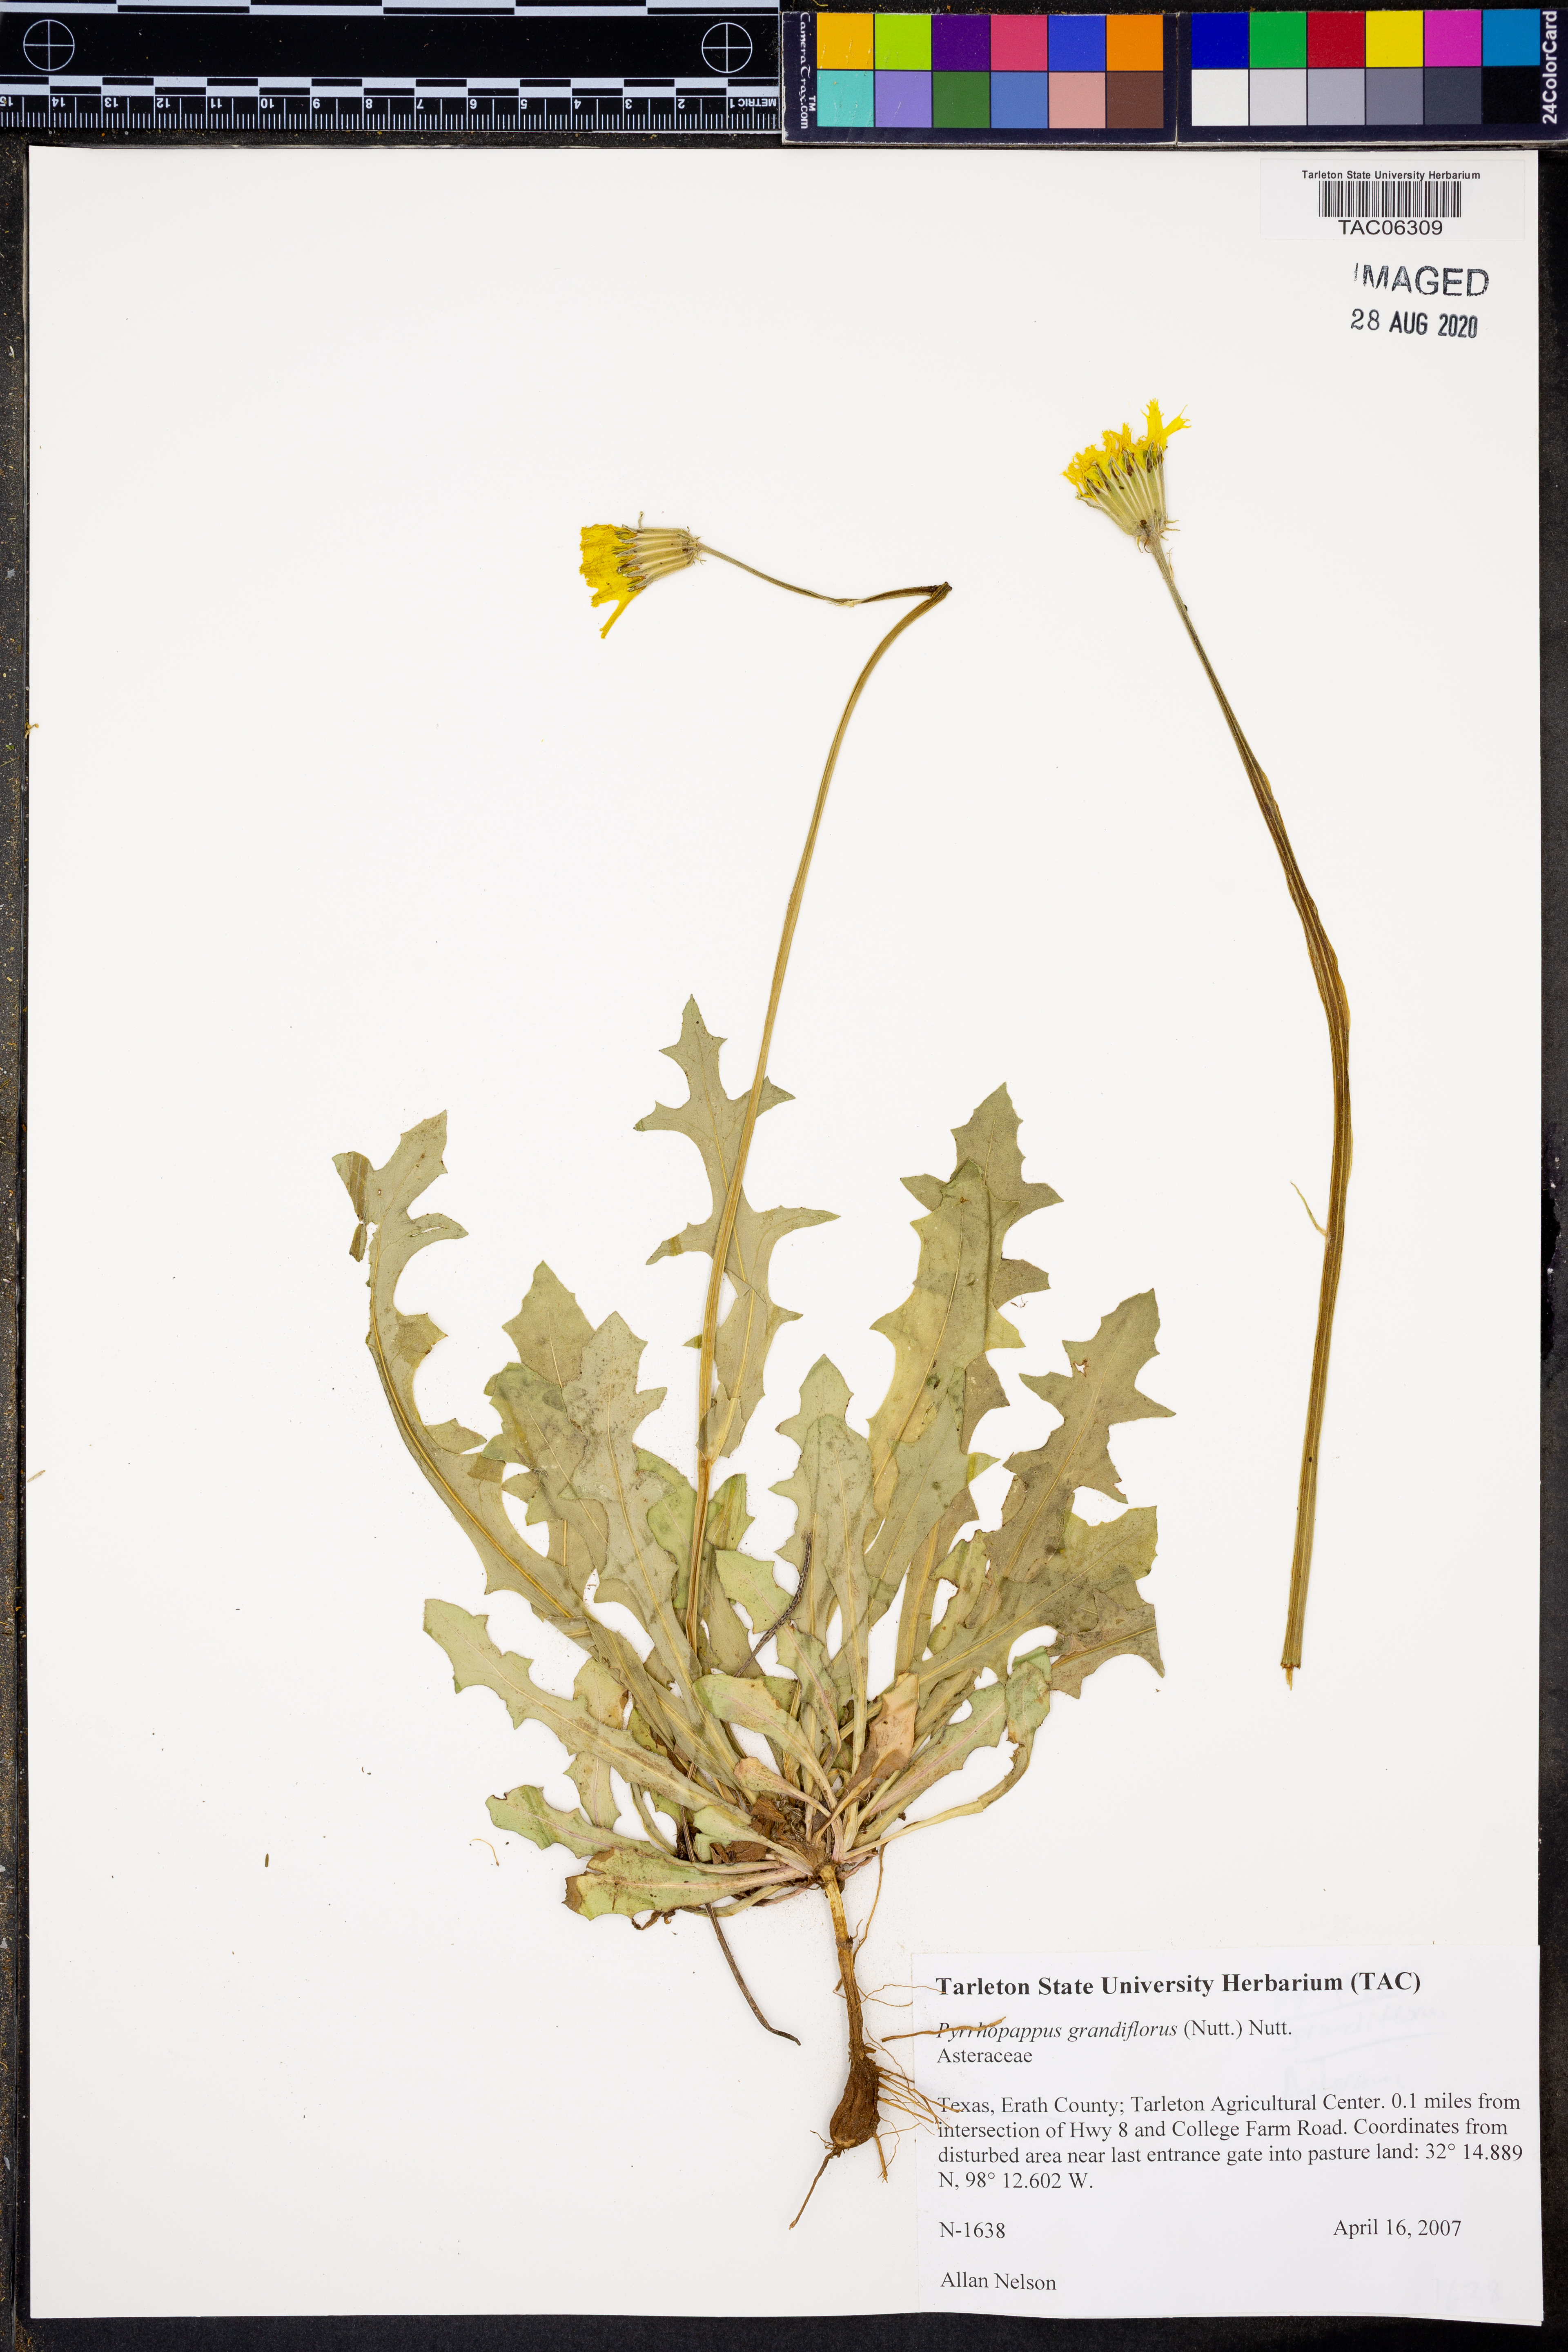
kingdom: Plantae
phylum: Tracheophyta
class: Magnoliopsida
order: Asterales
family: Asteraceae
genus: Pyrrhopappus
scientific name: Pyrrhopappus grandiflorus
